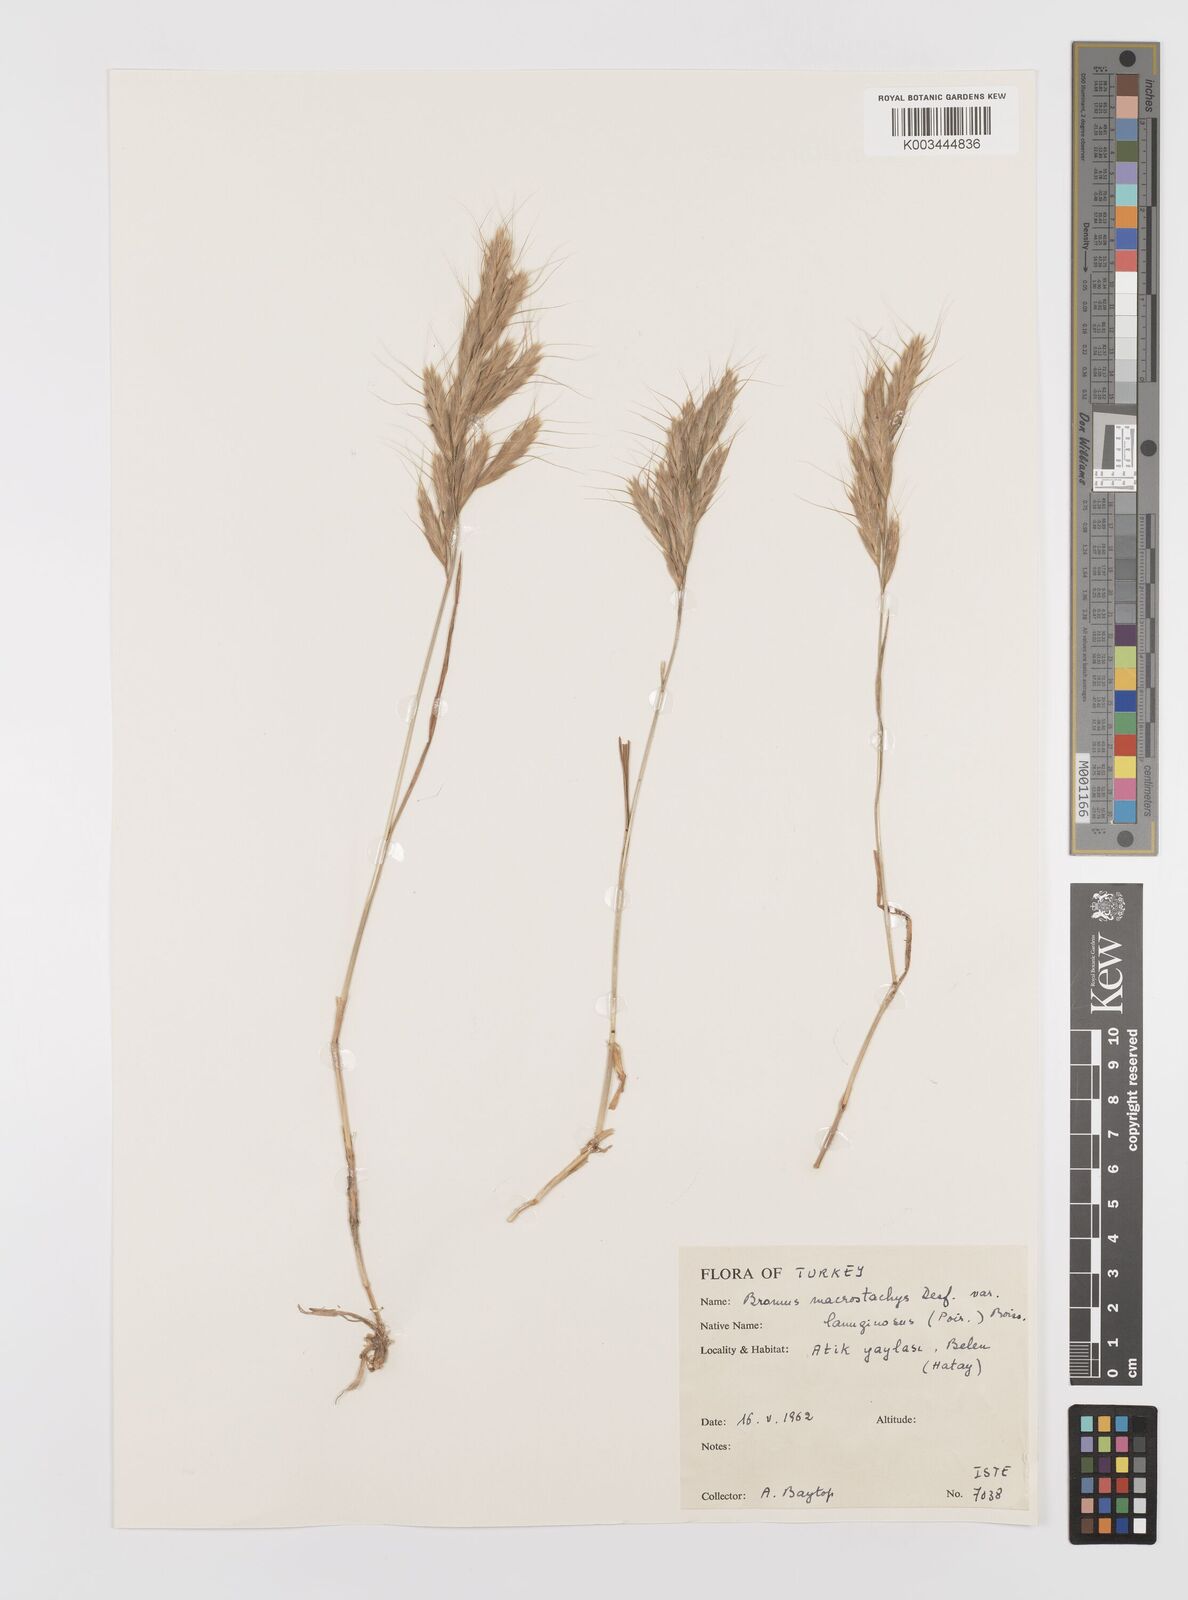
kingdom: Plantae
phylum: Tracheophyta
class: Liliopsida
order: Poales
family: Poaceae
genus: Bromus
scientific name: Bromus lanceolatus
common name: Mediterranean brome
